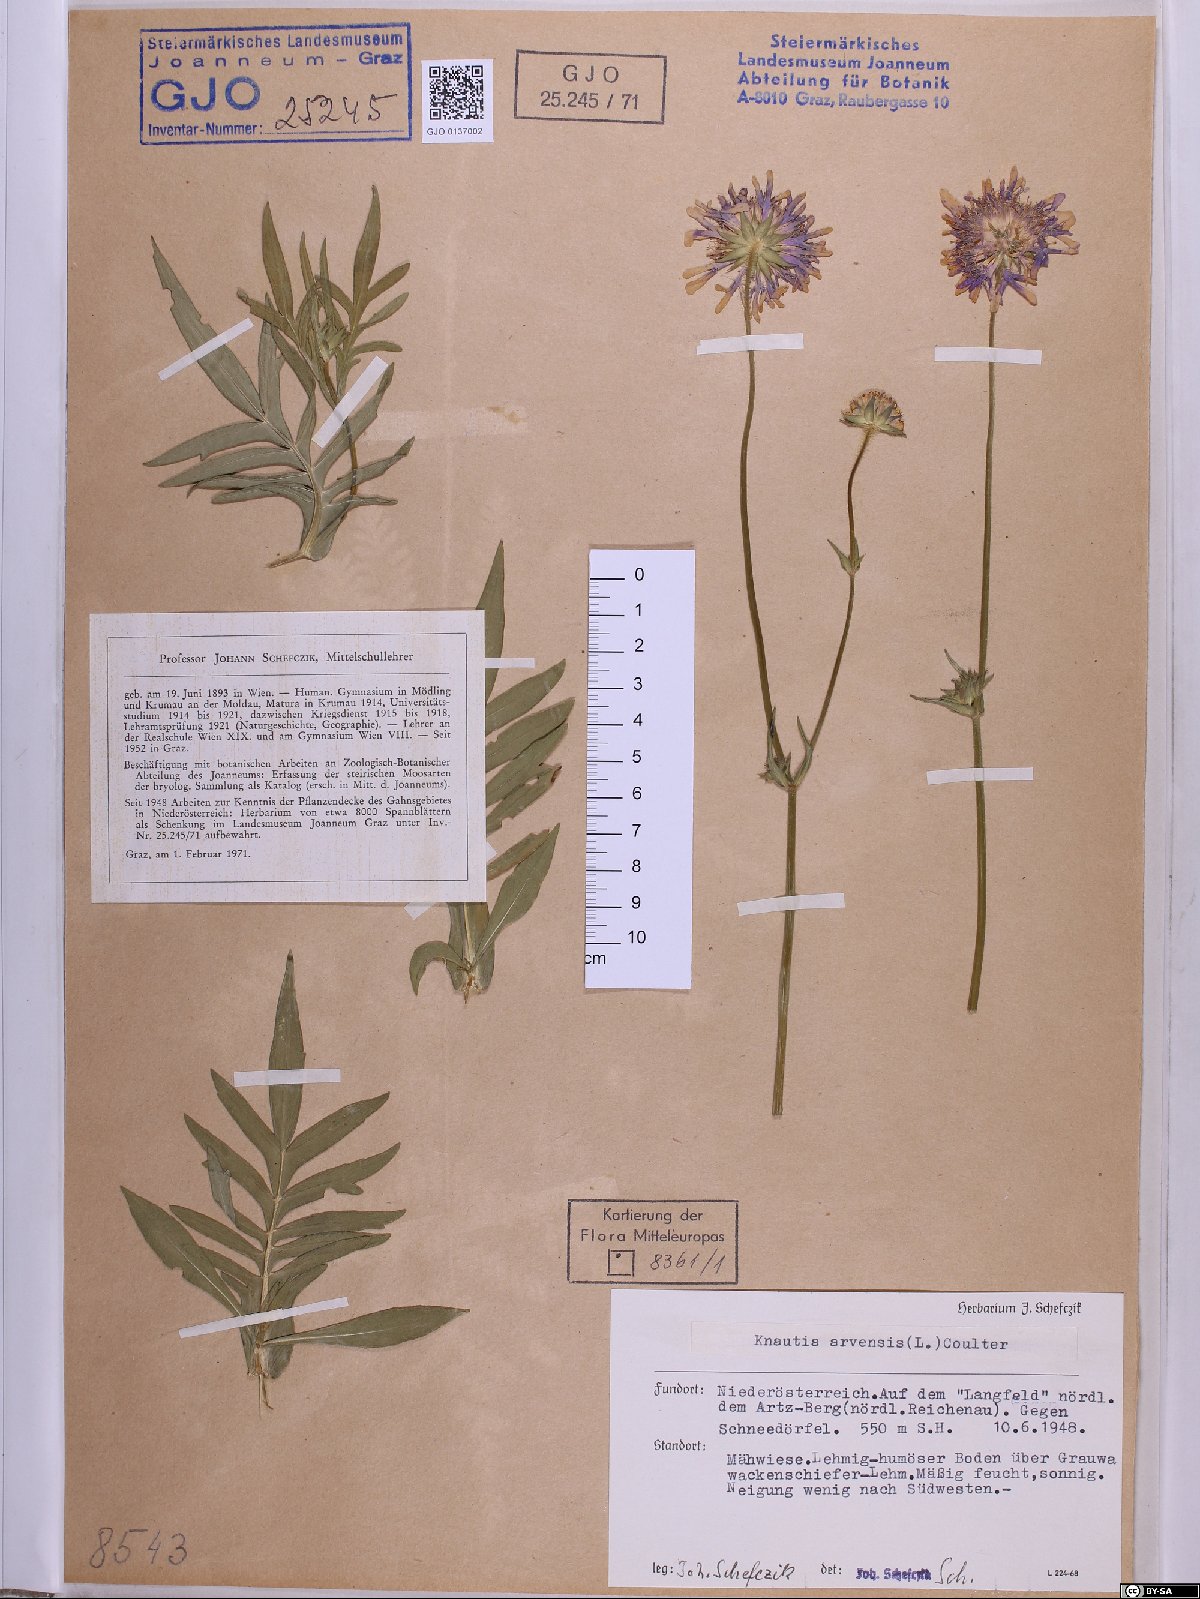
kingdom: Plantae
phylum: Tracheophyta
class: Magnoliopsida
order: Dipsacales
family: Caprifoliaceae
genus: Knautia
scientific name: Knautia arvensis
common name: Field scabiosa
